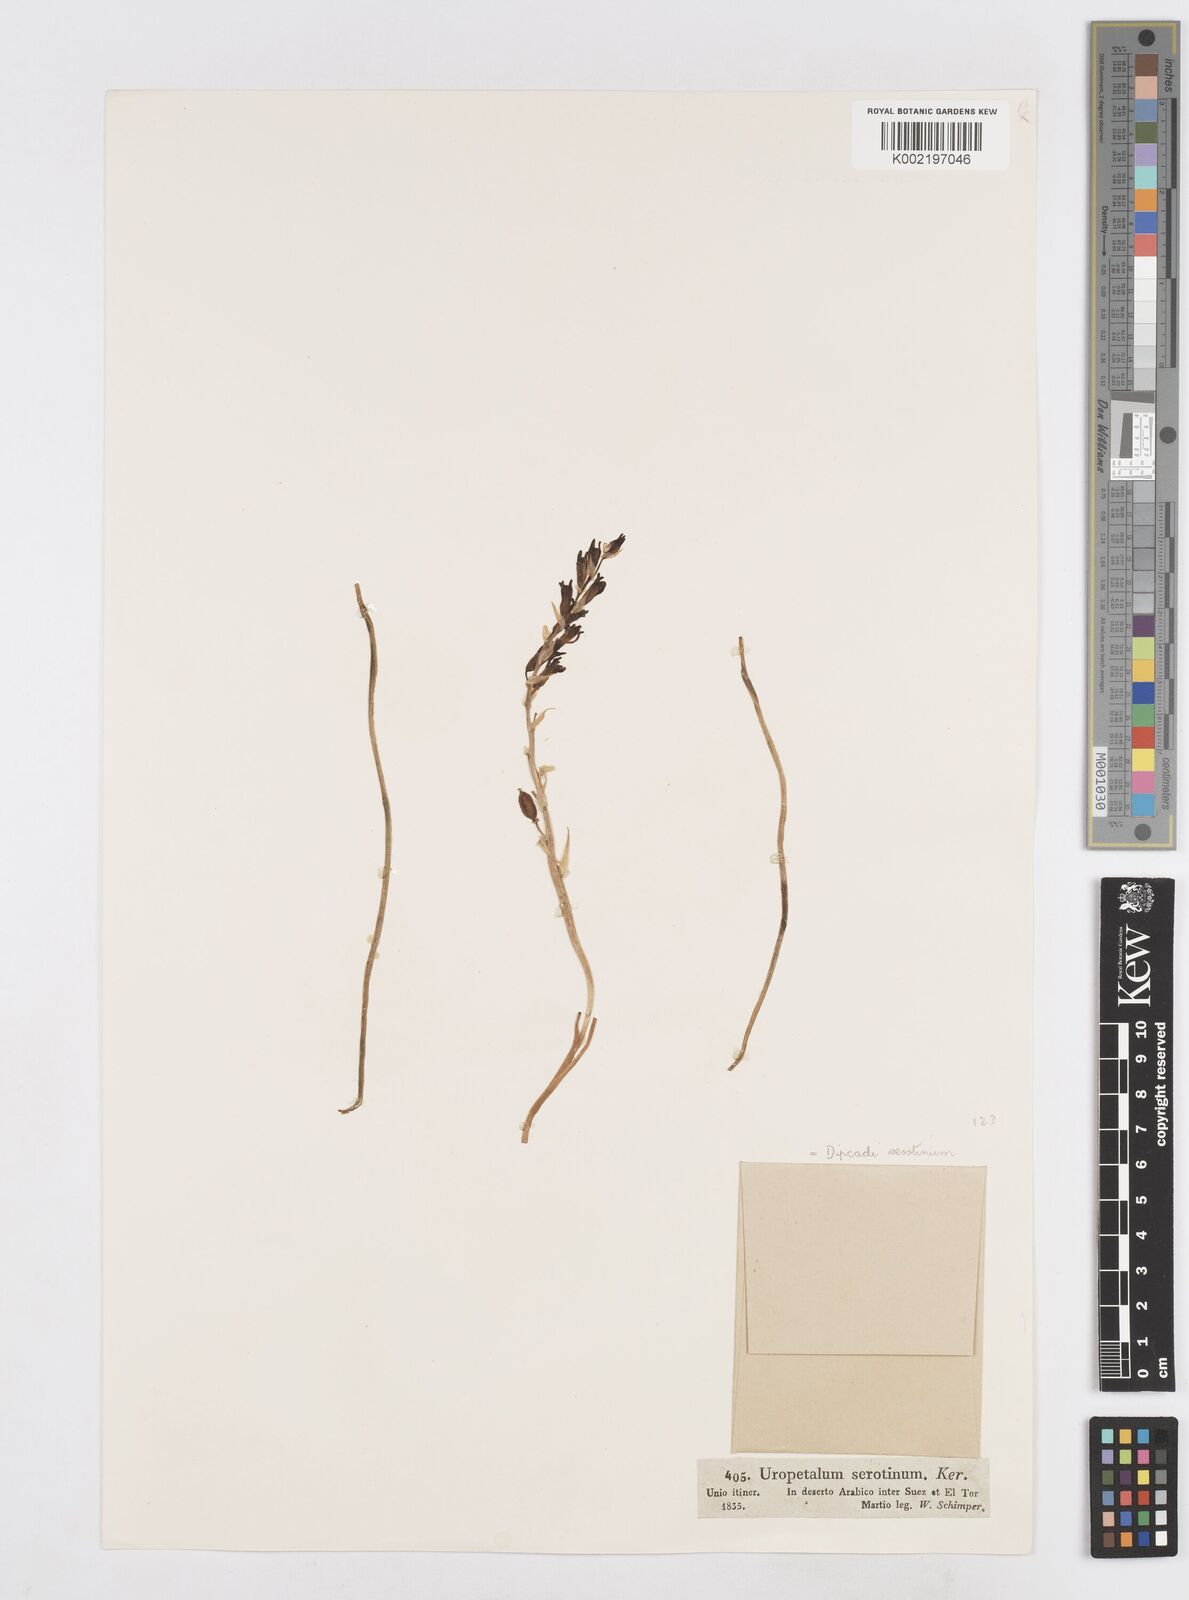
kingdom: Plantae
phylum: Tracheophyta
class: Liliopsida
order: Asparagales
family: Asparagaceae
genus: Dipcadi
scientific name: Dipcadi serotinum
